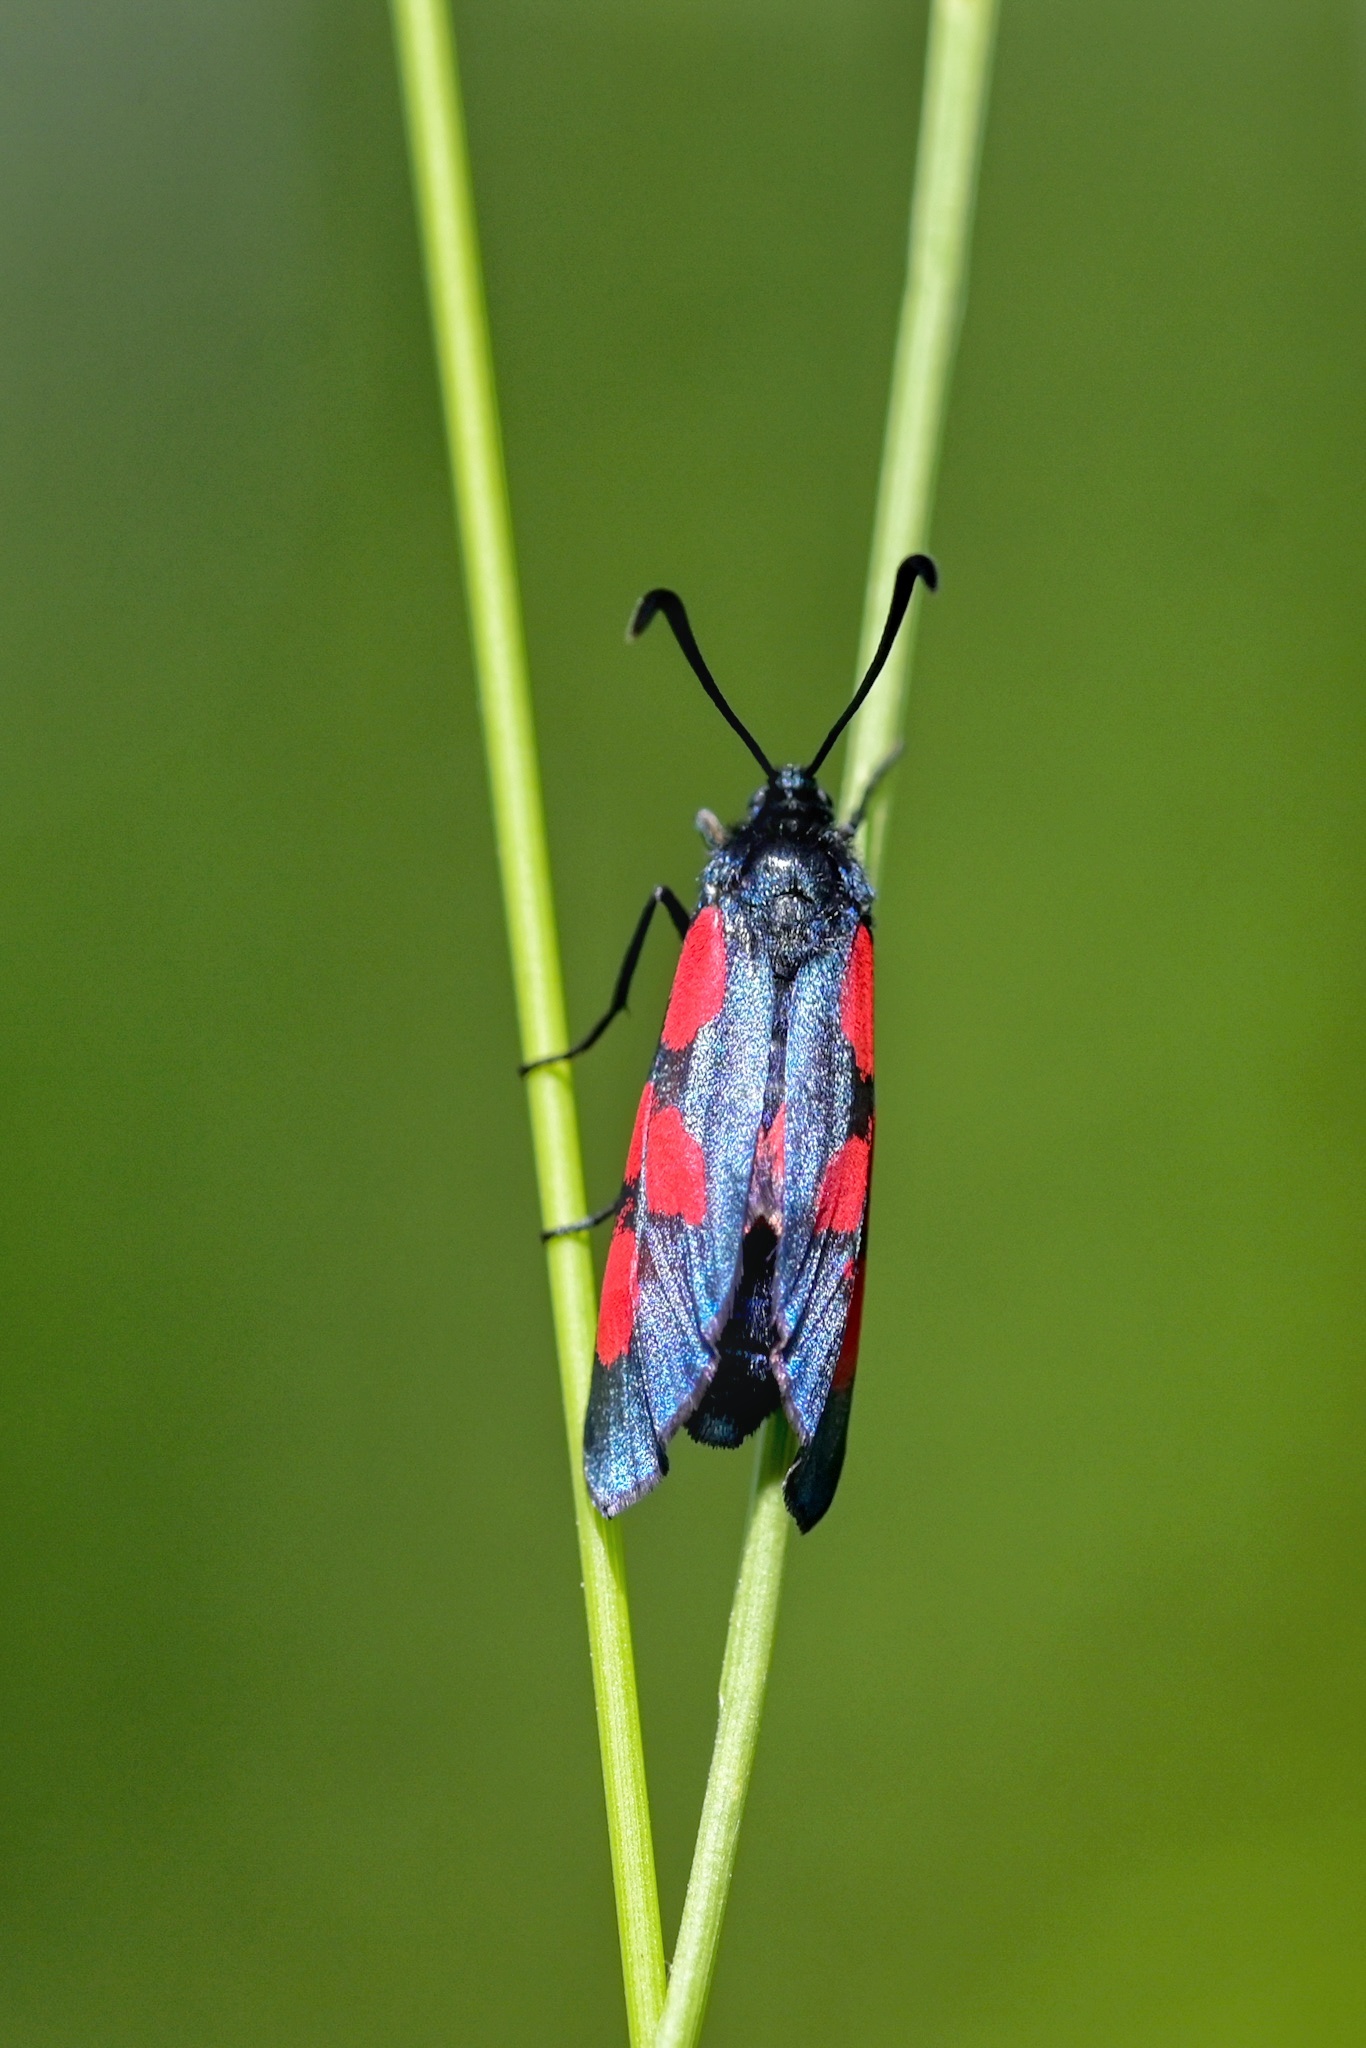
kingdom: Animalia
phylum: Arthropoda
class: Insecta
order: Lepidoptera
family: Zygaenidae
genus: Zygaena
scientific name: Zygaena viciae
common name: New forest burnet
